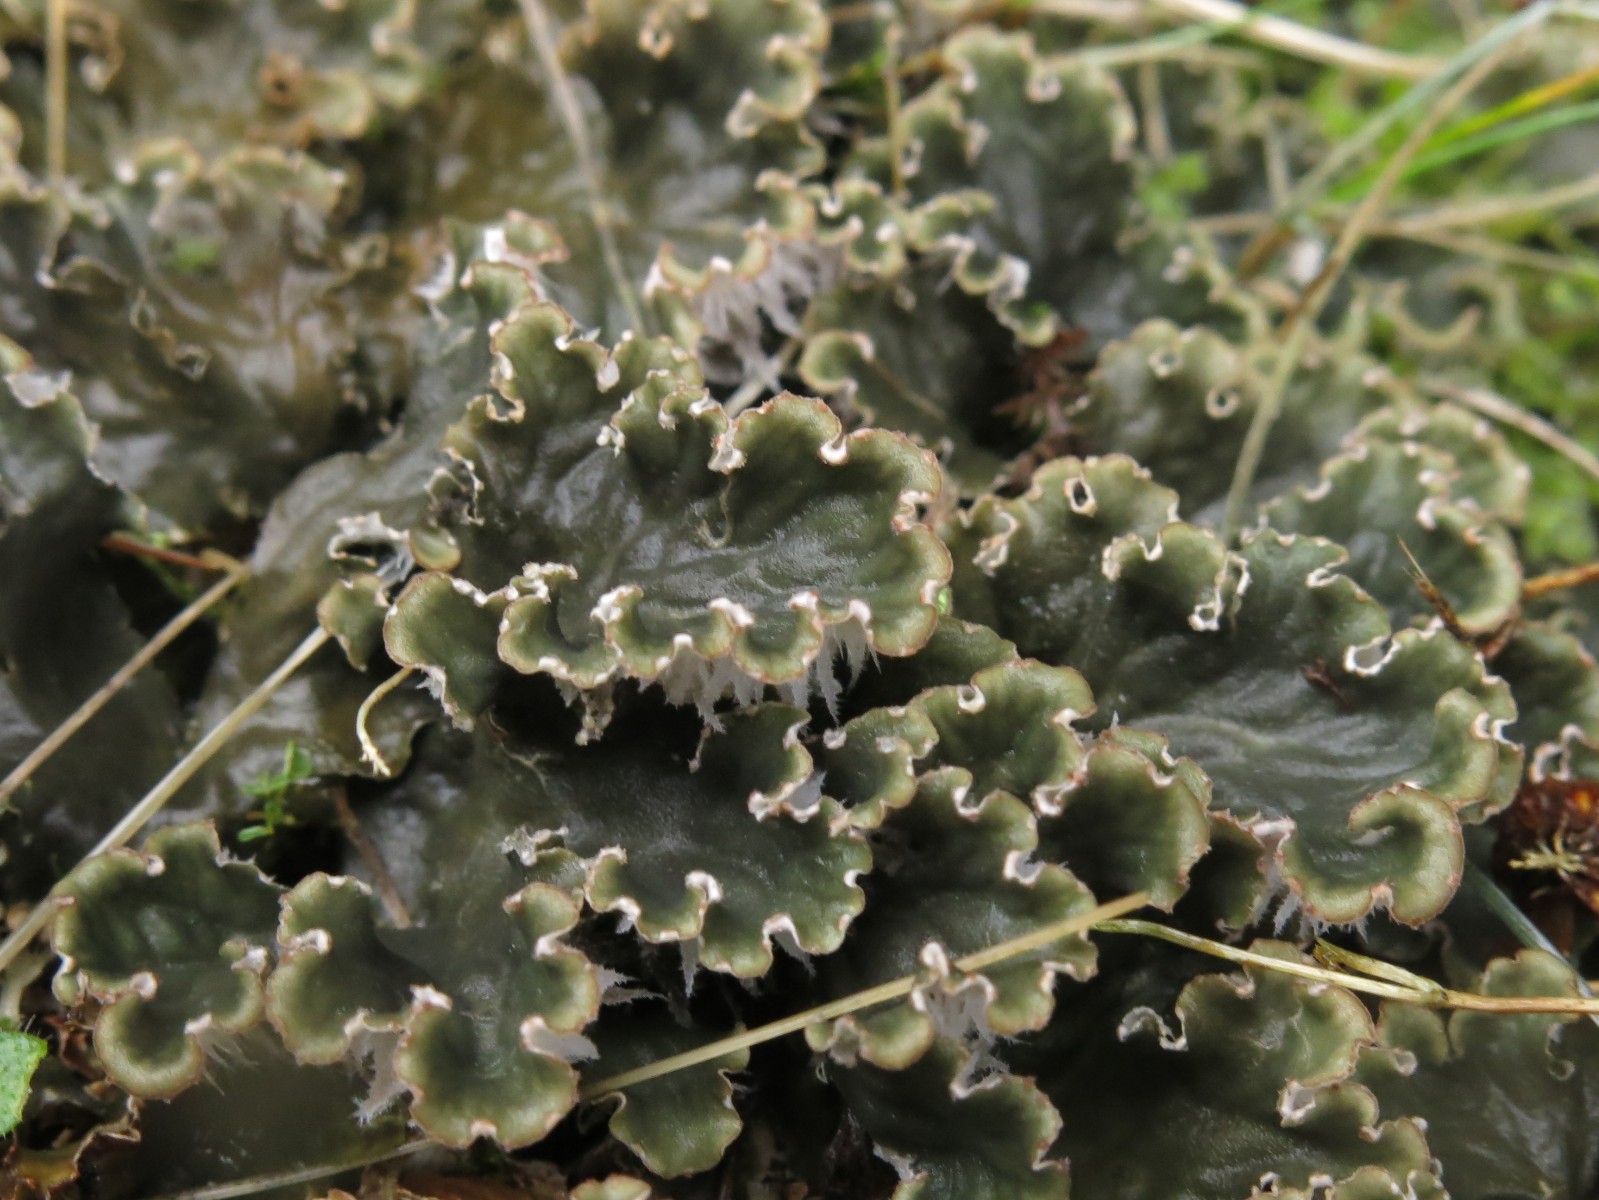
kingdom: Fungi
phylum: Ascomycota
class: Lecanoromycetes
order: Peltigerales
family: Peltigeraceae
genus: Peltigera
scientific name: Peltigera canina
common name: hunde-skjoldlav
